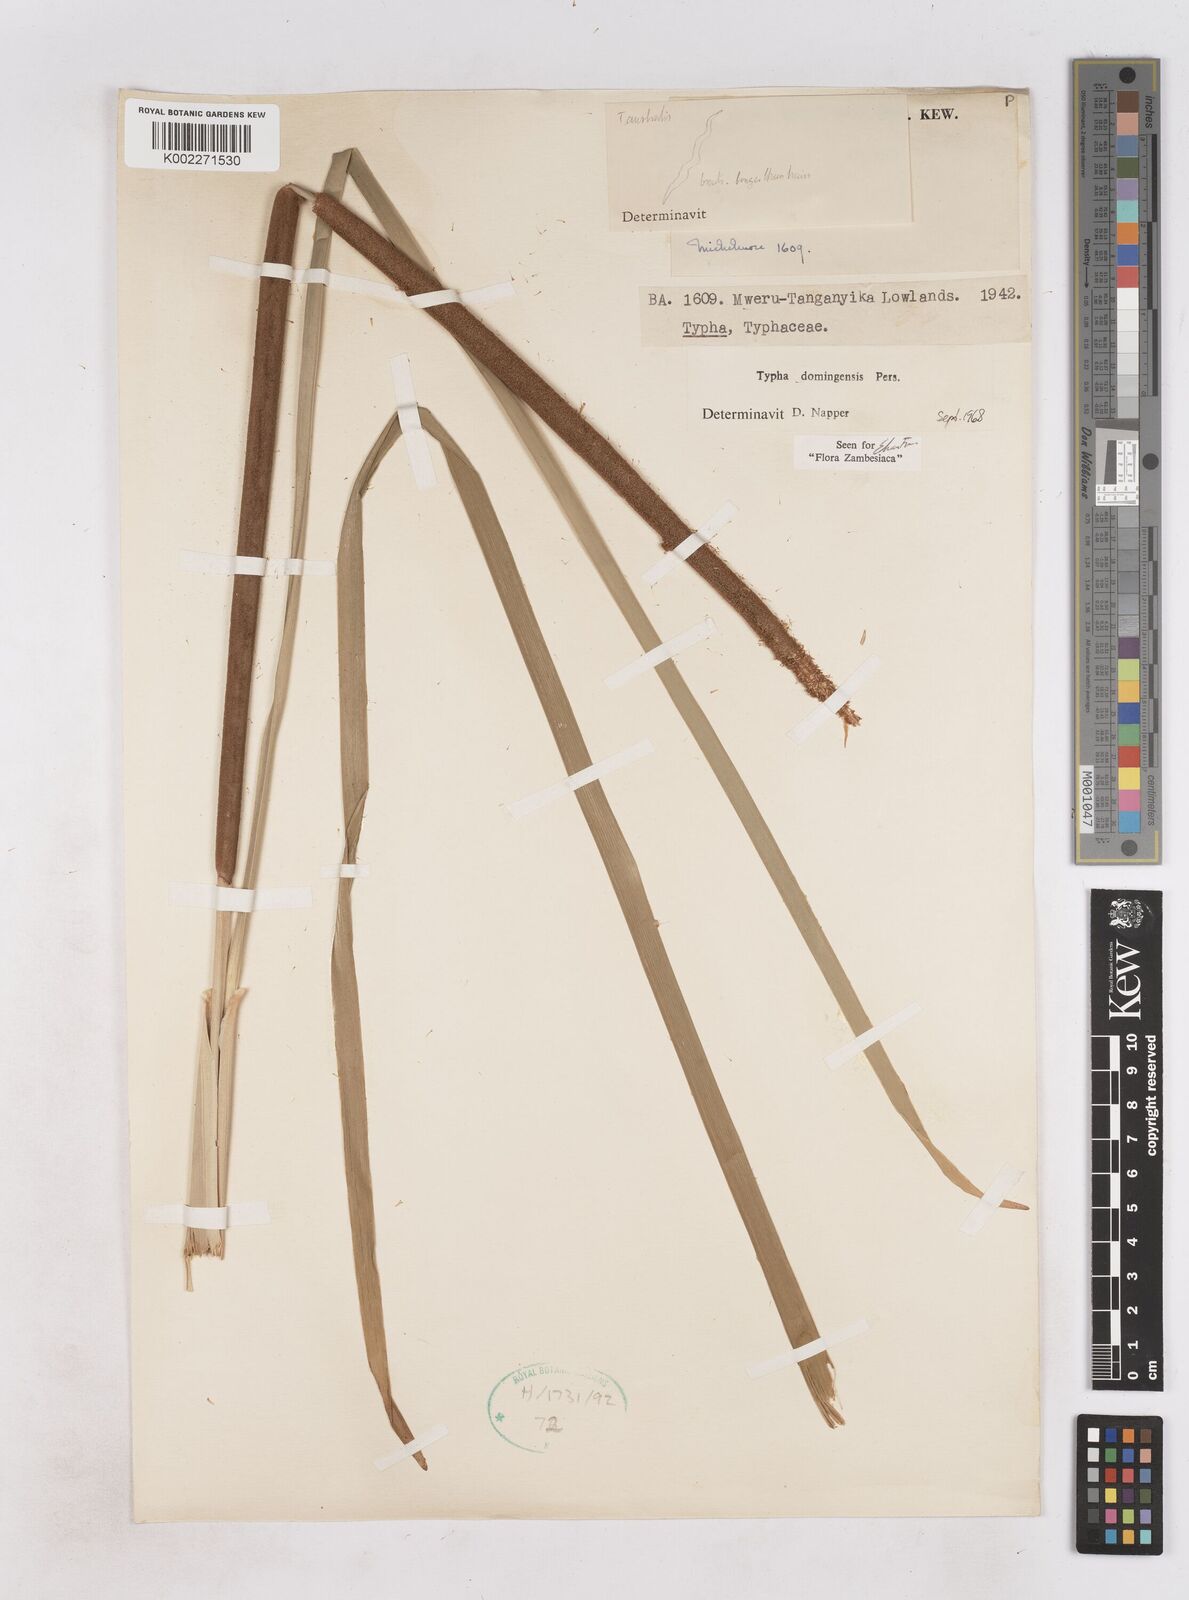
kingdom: Plantae
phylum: Tracheophyta
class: Liliopsida
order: Poales
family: Typhaceae
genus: Typha
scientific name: Typha domingensis
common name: Southern cattail
